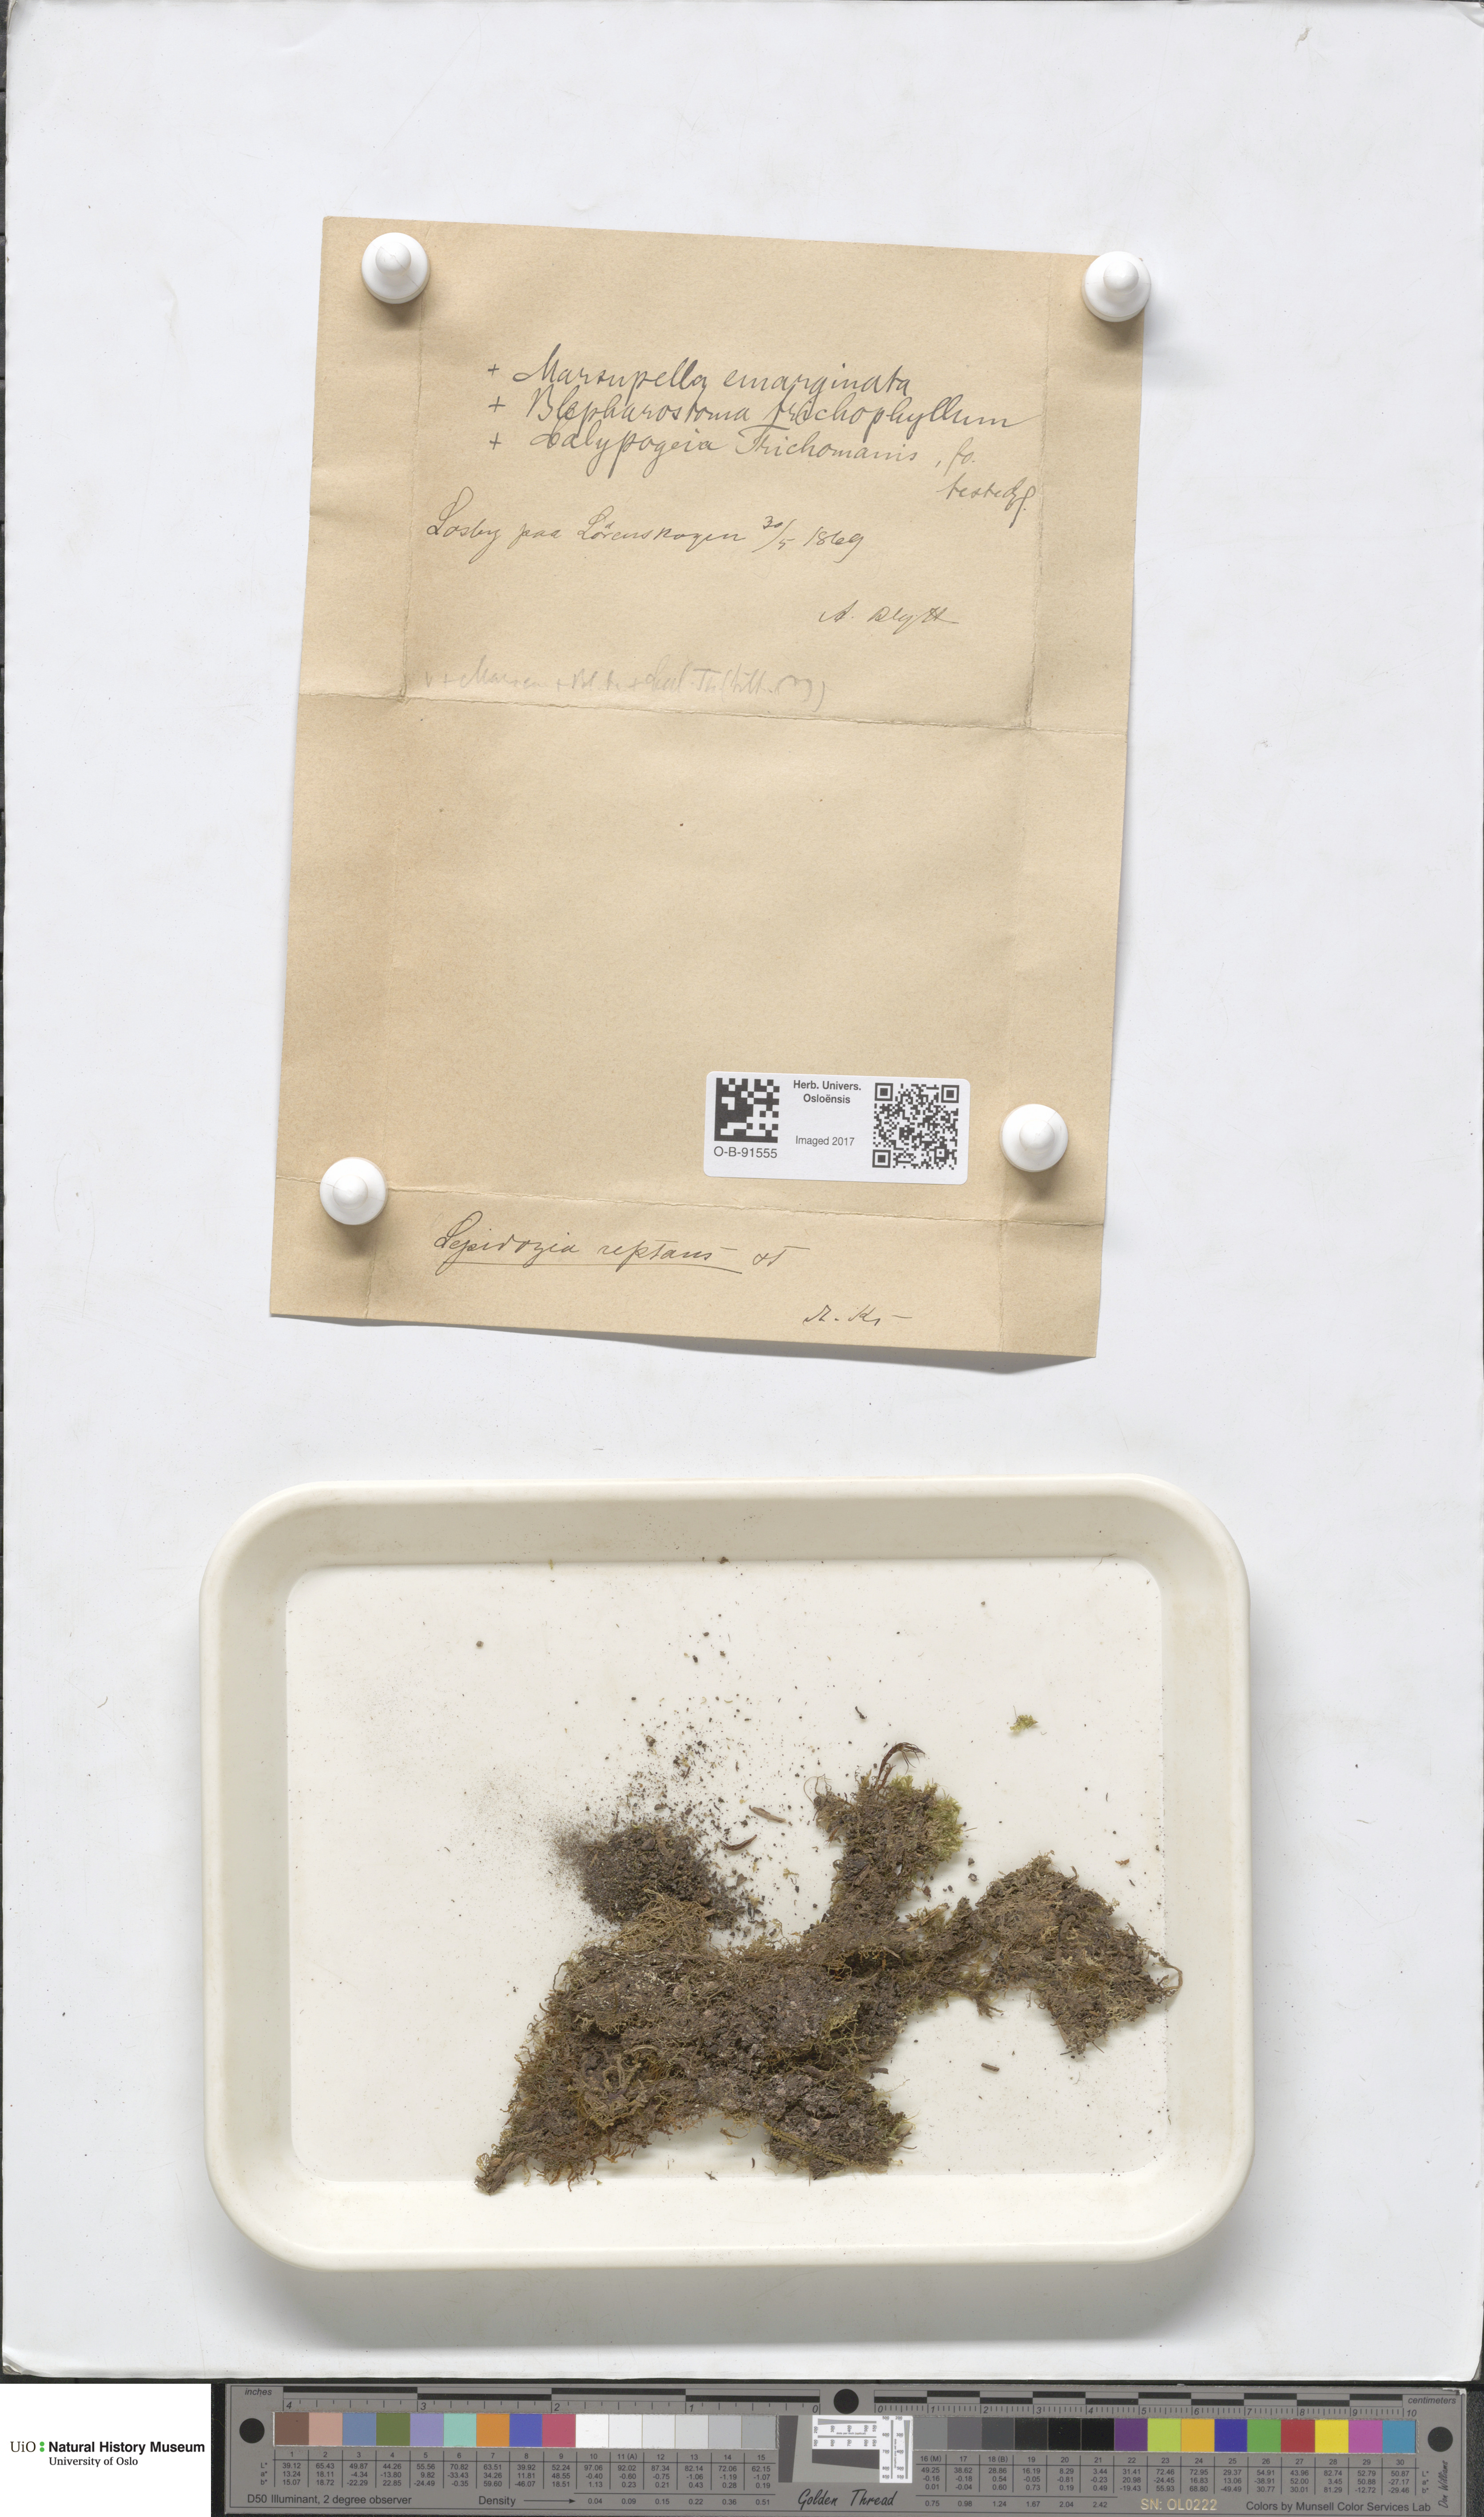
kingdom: Plantae
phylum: Marchantiophyta
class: Jungermanniopsida
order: Jungermanniales
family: Lepidoziaceae
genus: Lepidozia
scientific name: Lepidozia reptans
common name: Creeping fingerwort
